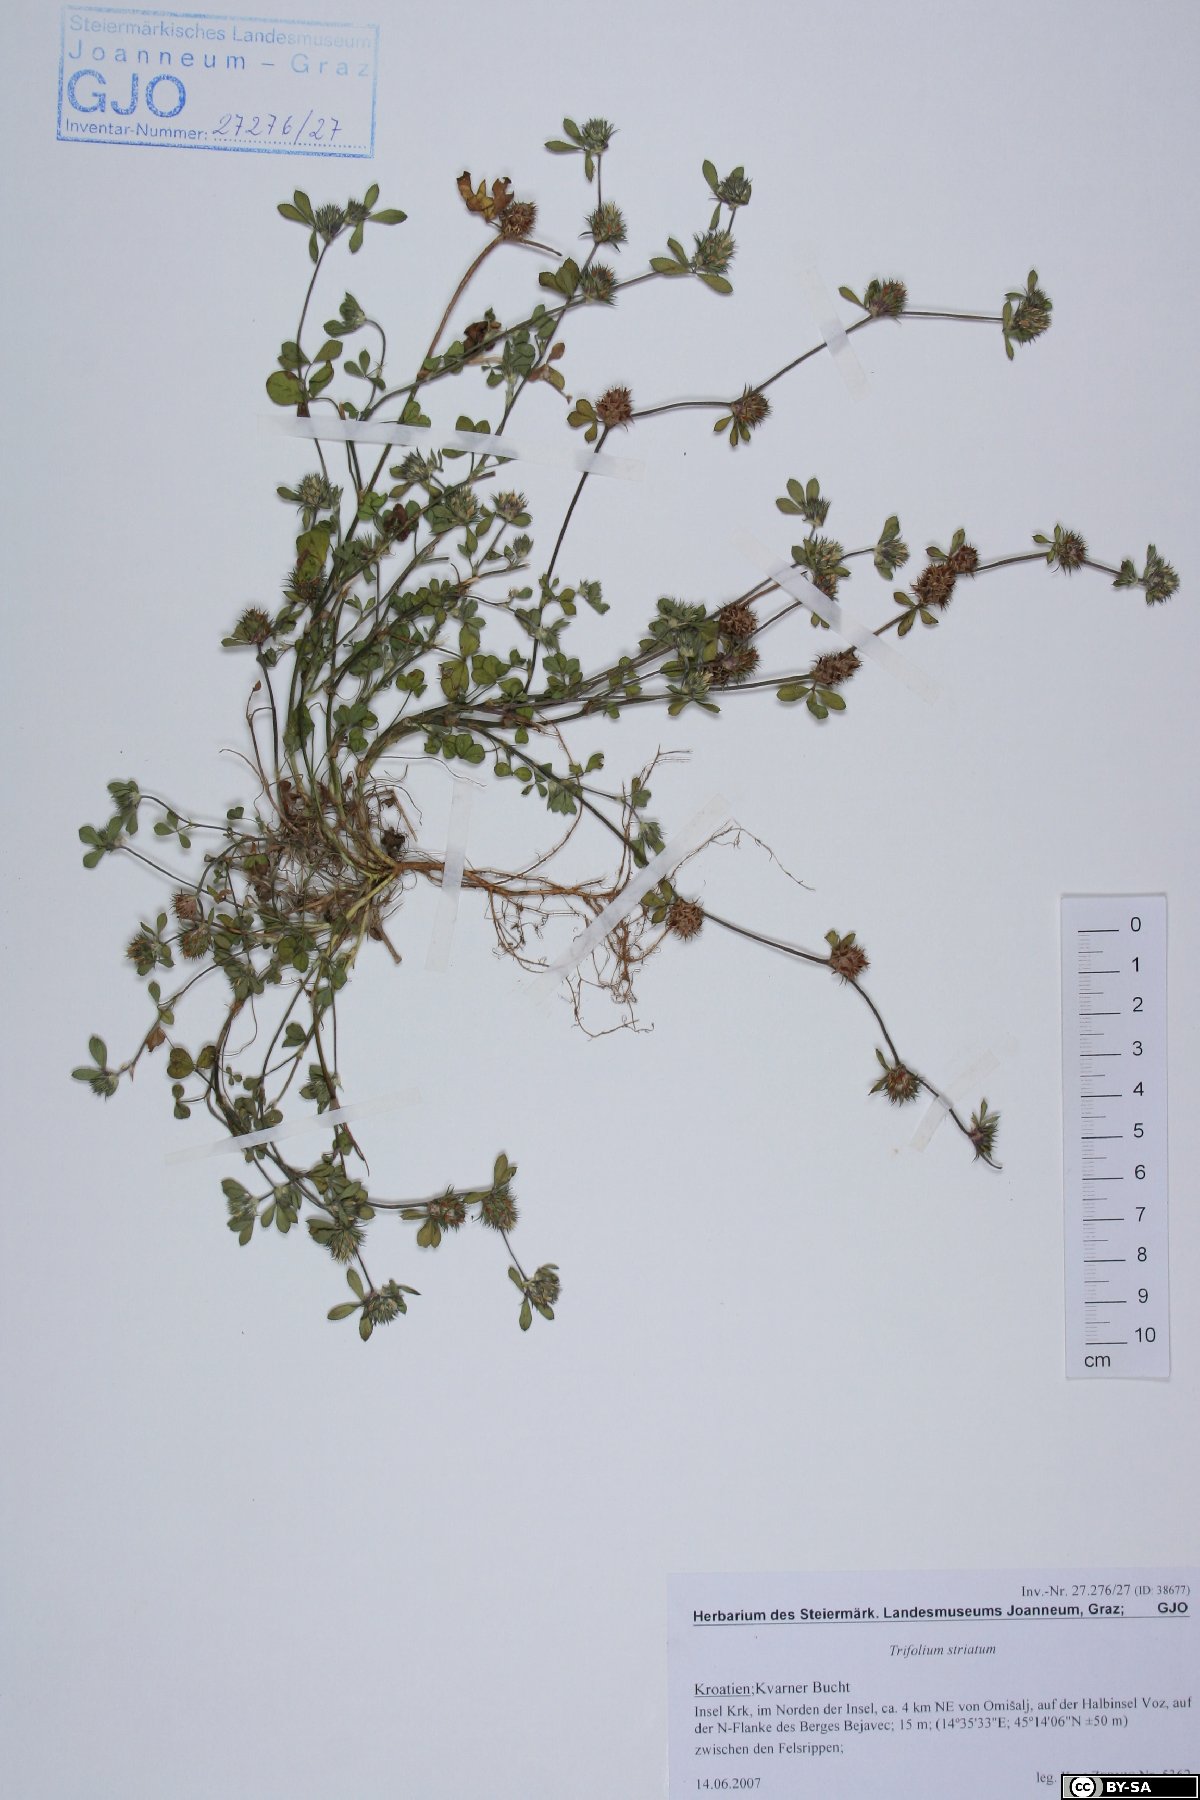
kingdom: Plantae
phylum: Tracheophyta
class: Magnoliopsida
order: Fabales
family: Fabaceae
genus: Trifolium
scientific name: Trifolium striatum
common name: Knotted clover
